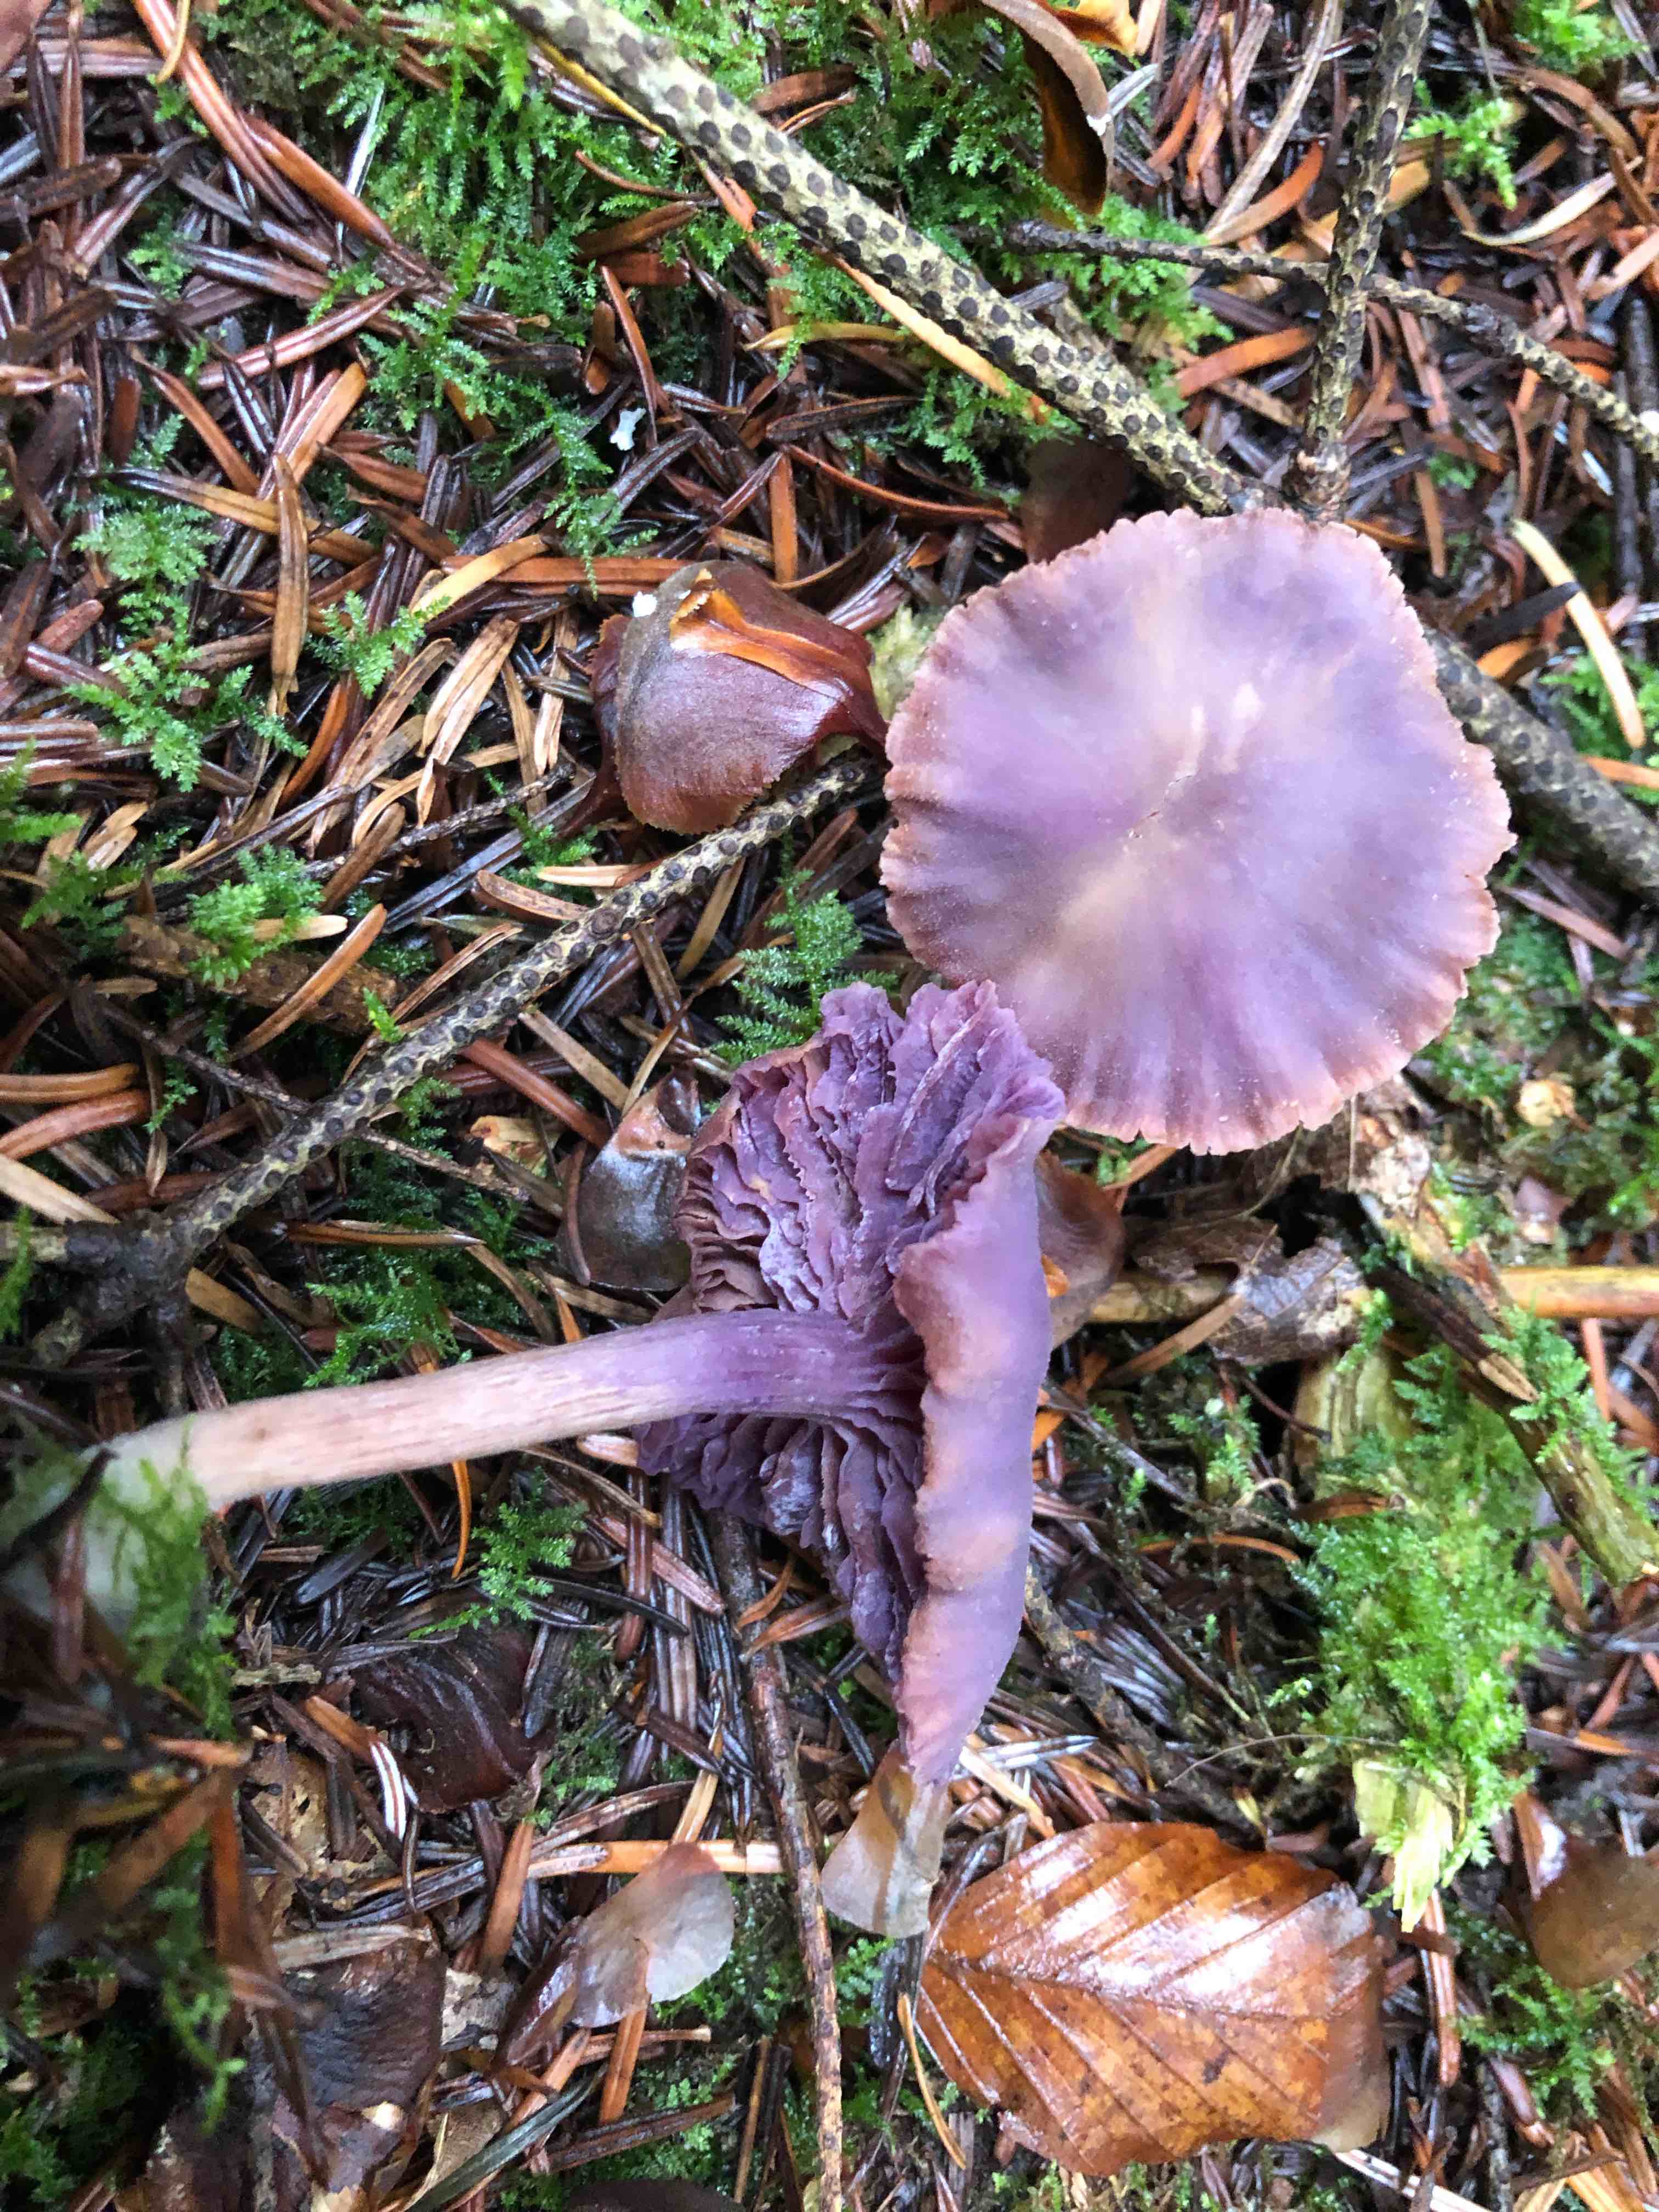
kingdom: Fungi
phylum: Basidiomycota
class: Agaricomycetes
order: Agaricales
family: Hydnangiaceae
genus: Laccaria
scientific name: Laccaria amethystina
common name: violet ametysthat
